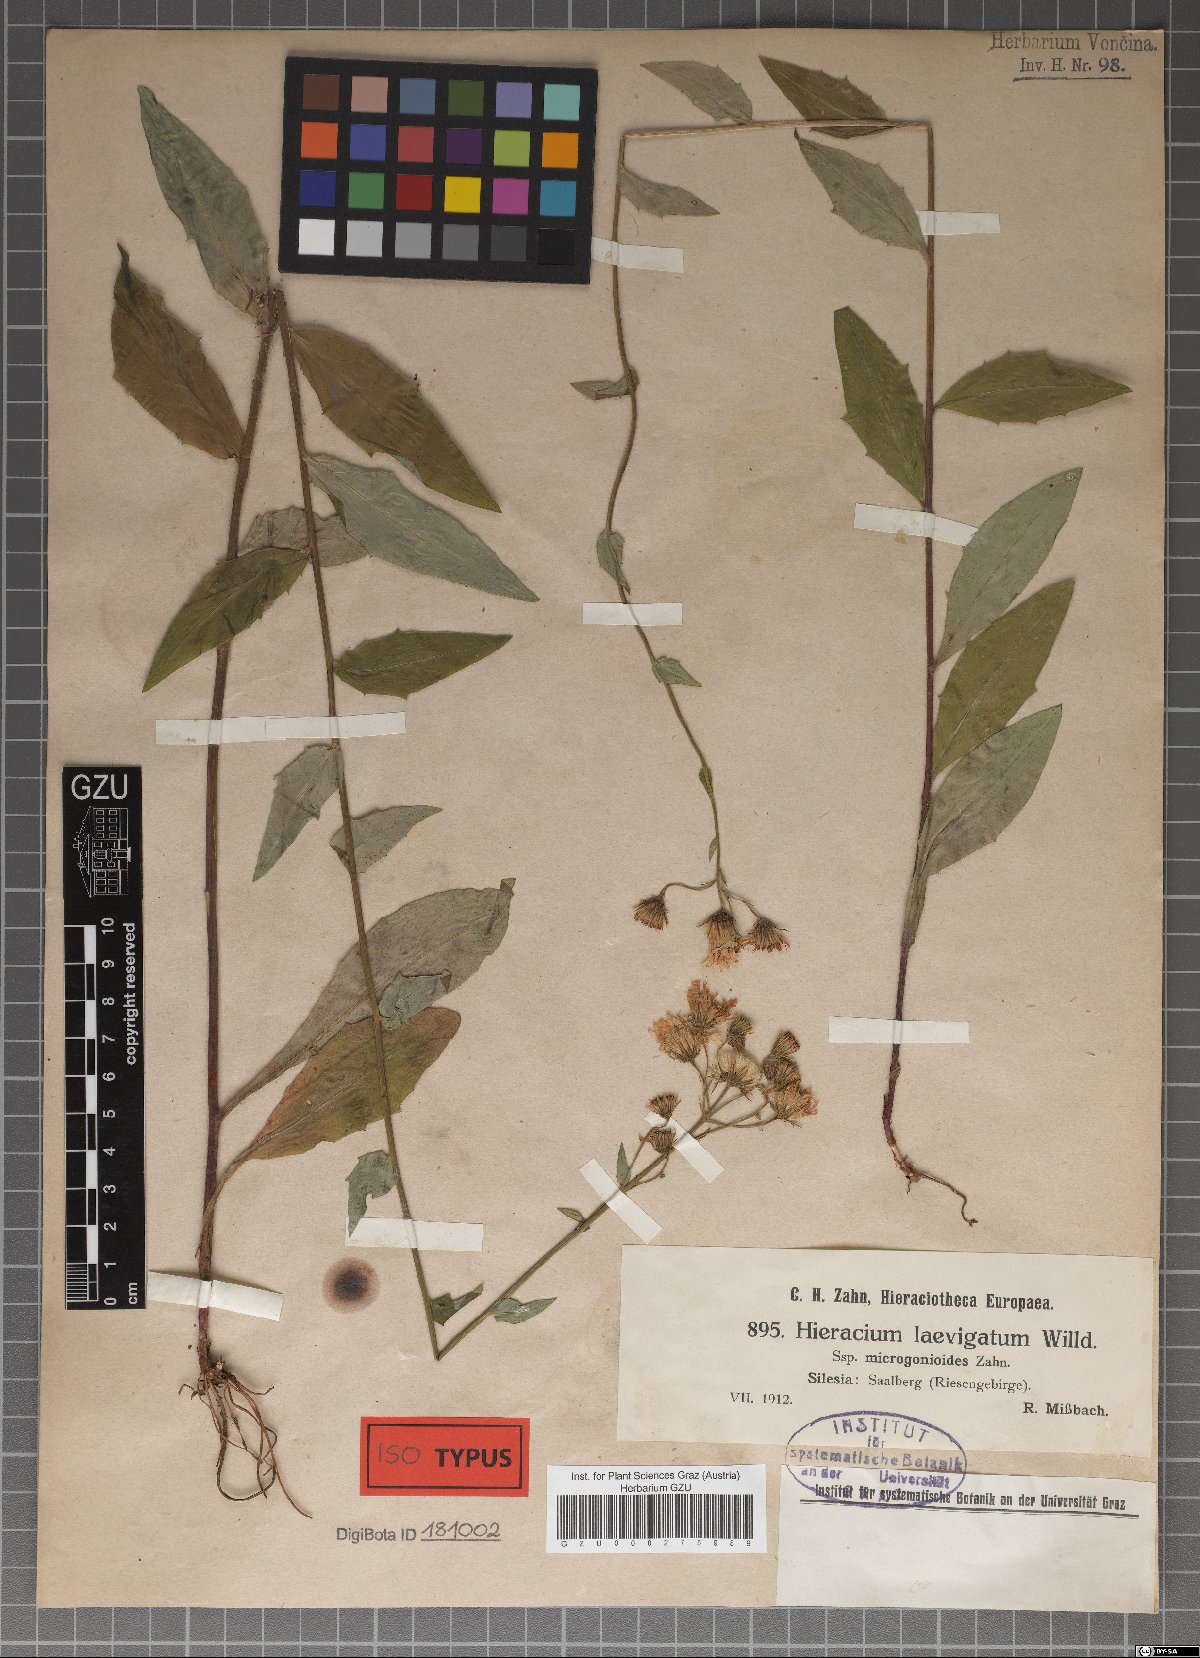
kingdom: Plantae
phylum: Tracheophyta
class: Magnoliopsida
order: Asterales
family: Asteraceae
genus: Hieracium
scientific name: Hieracium laevigatum
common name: Smooth hawkweed
